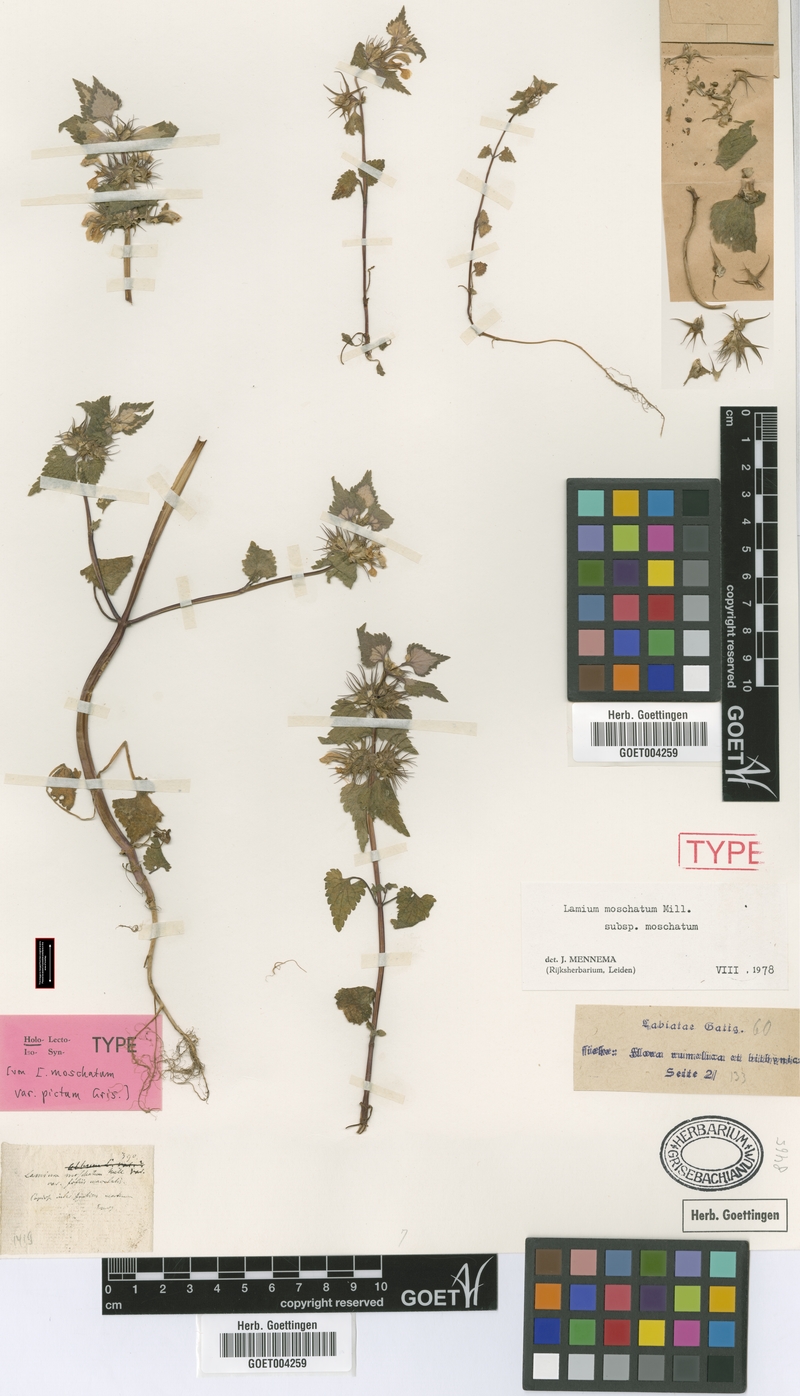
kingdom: Plantae
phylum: Tracheophyta
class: Magnoliopsida
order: Lamiales
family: Lamiaceae
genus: Lamium
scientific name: Lamium moschatum
